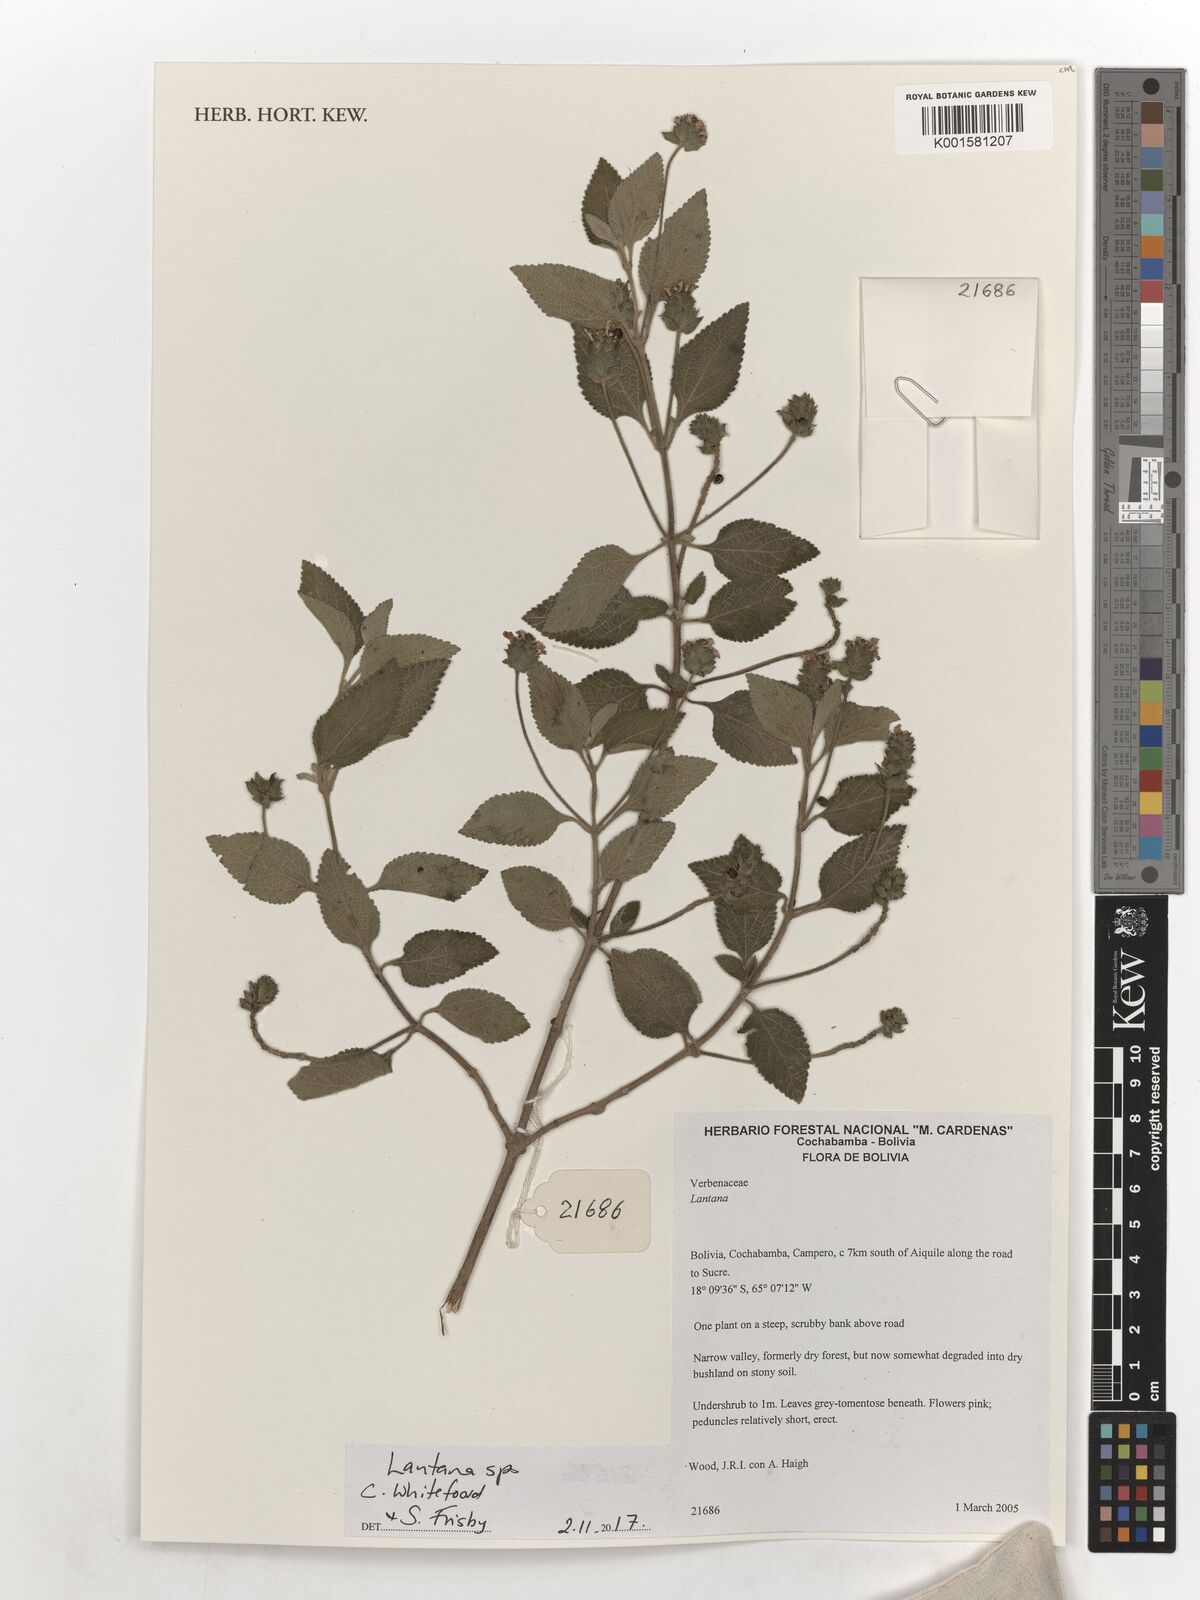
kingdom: Plantae
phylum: Tracheophyta
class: Magnoliopsida
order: Lamiales
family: Verbenaceae
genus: Lantana
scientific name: Lantana
